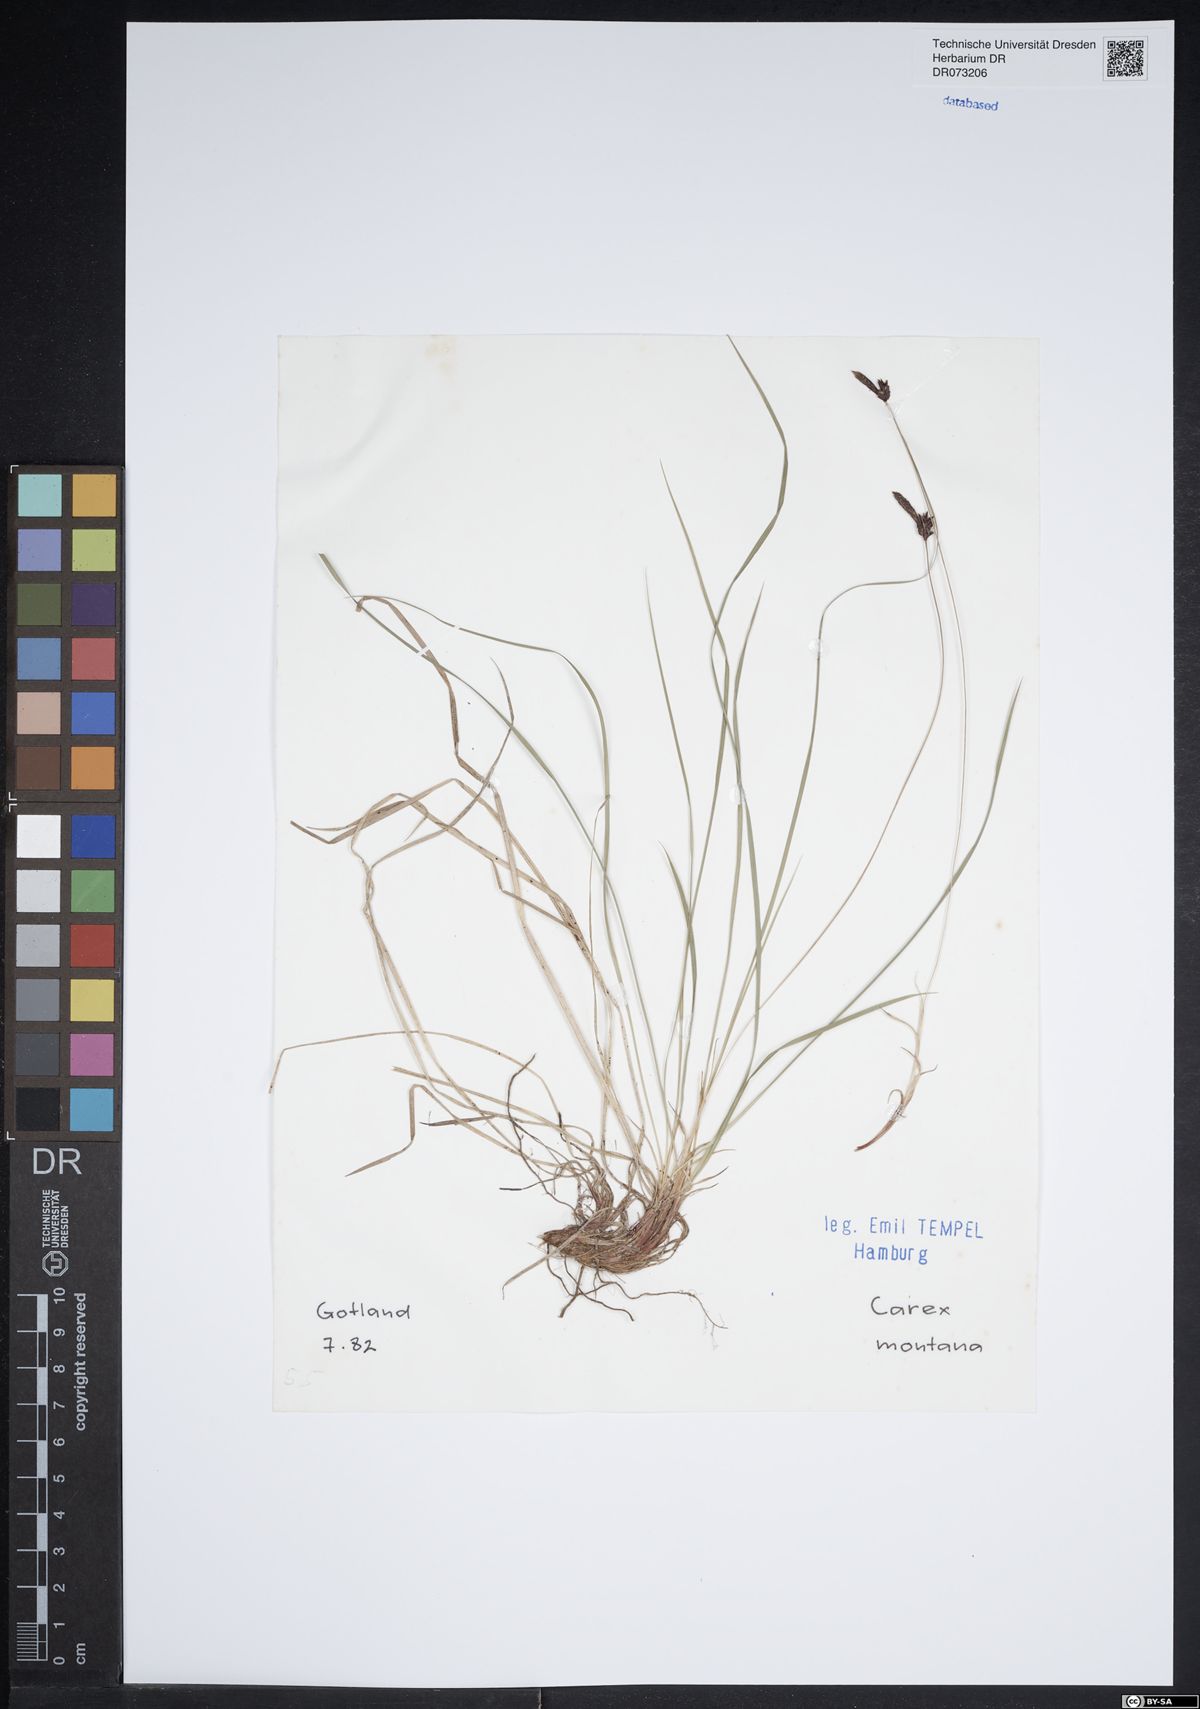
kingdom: Plantae
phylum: Tracheophyta
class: Liliopsida
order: Poales
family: Cyperaceae
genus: Carex
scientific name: Carex montana
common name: Soft-leaved sedge
